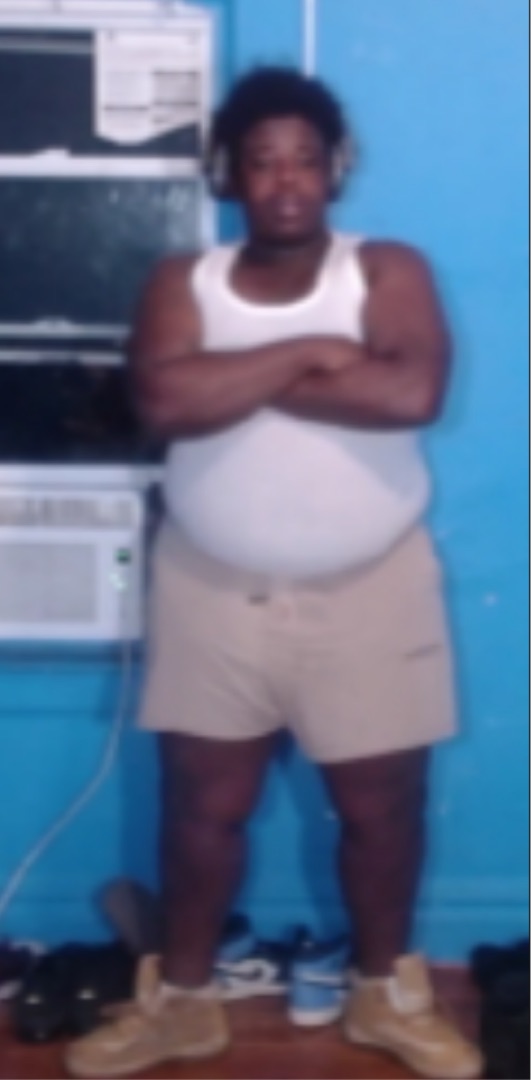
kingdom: Animalia
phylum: Chordata
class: Aves
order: Gruiformes
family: Rallidae
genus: Fulica
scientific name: Fulica atra
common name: Blishøne
